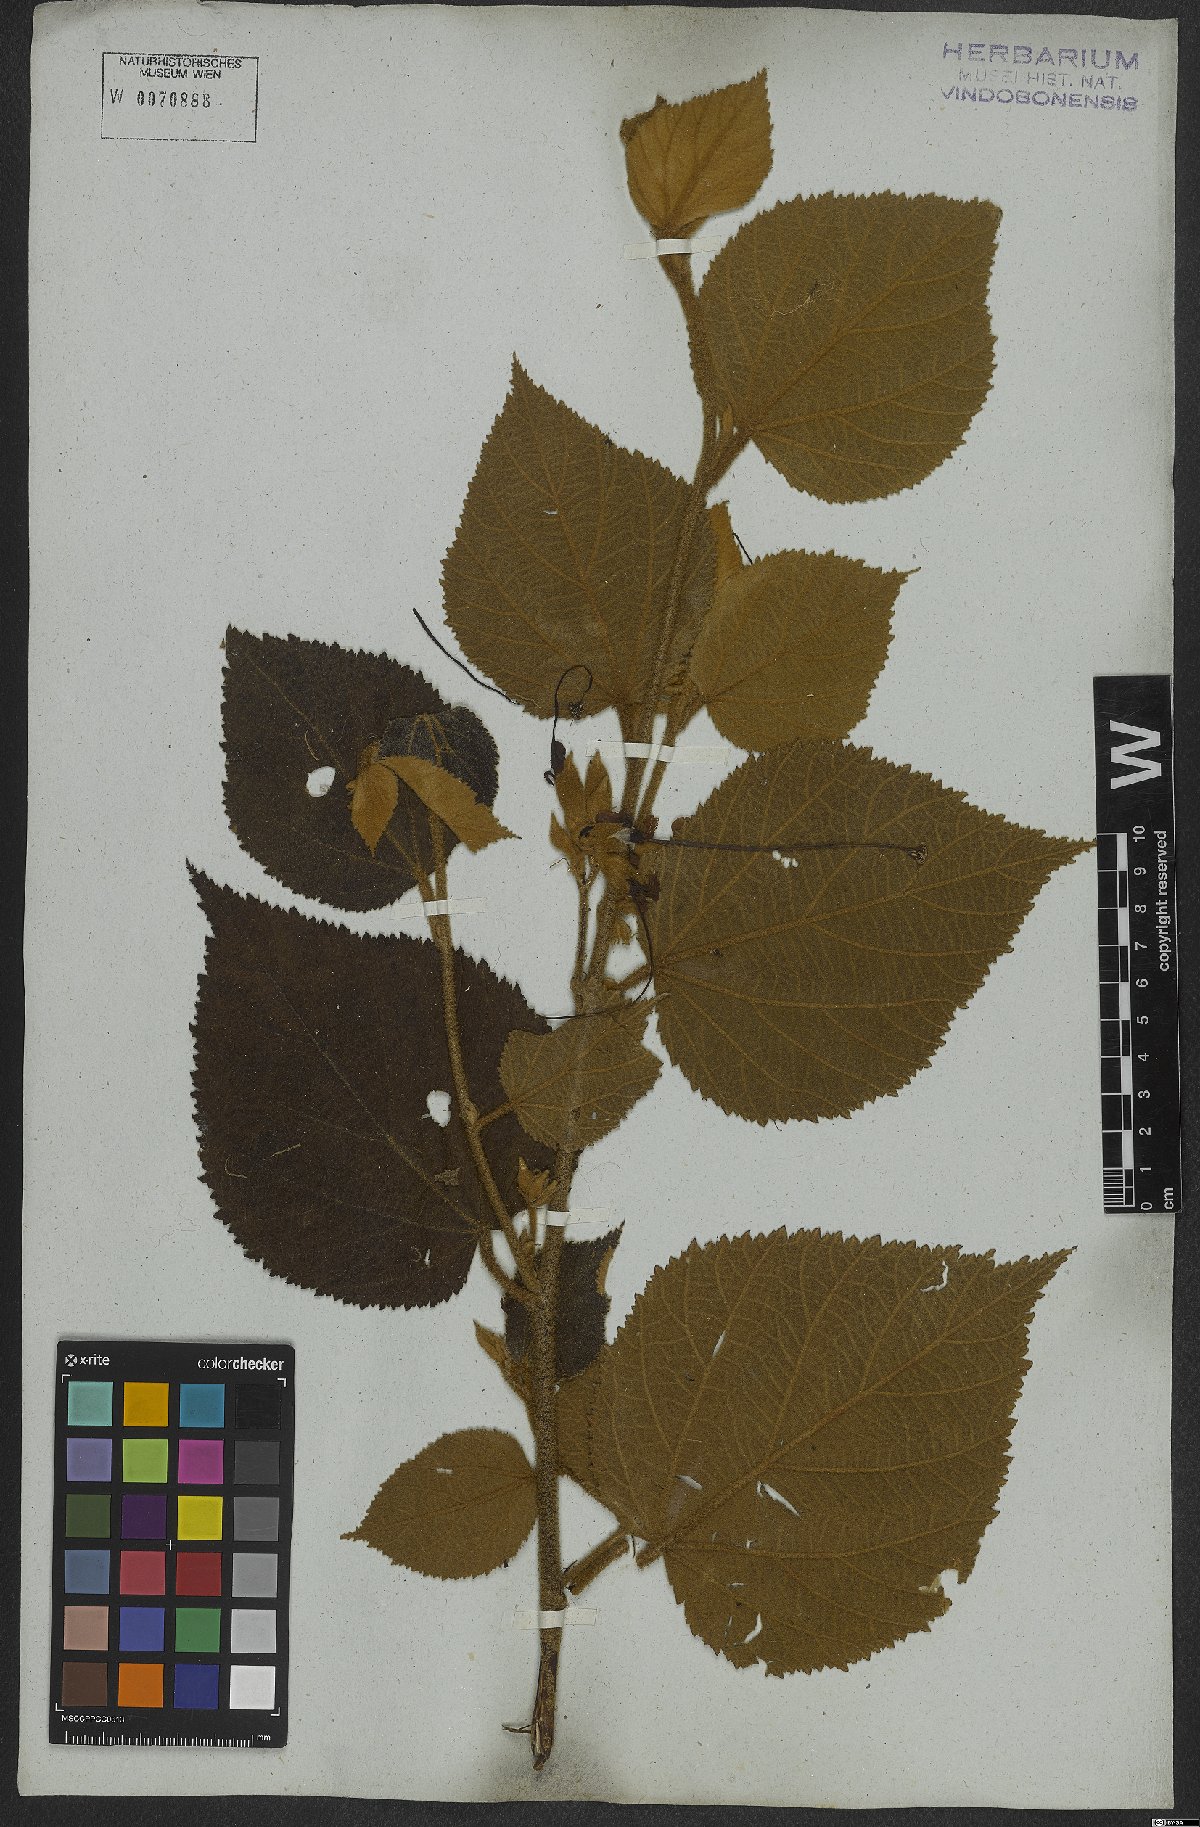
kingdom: Plantae
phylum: Tracheophyta
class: Magnoliopsida
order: Malvales
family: Malvaceae
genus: Helicteres
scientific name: Helicteres ovata
